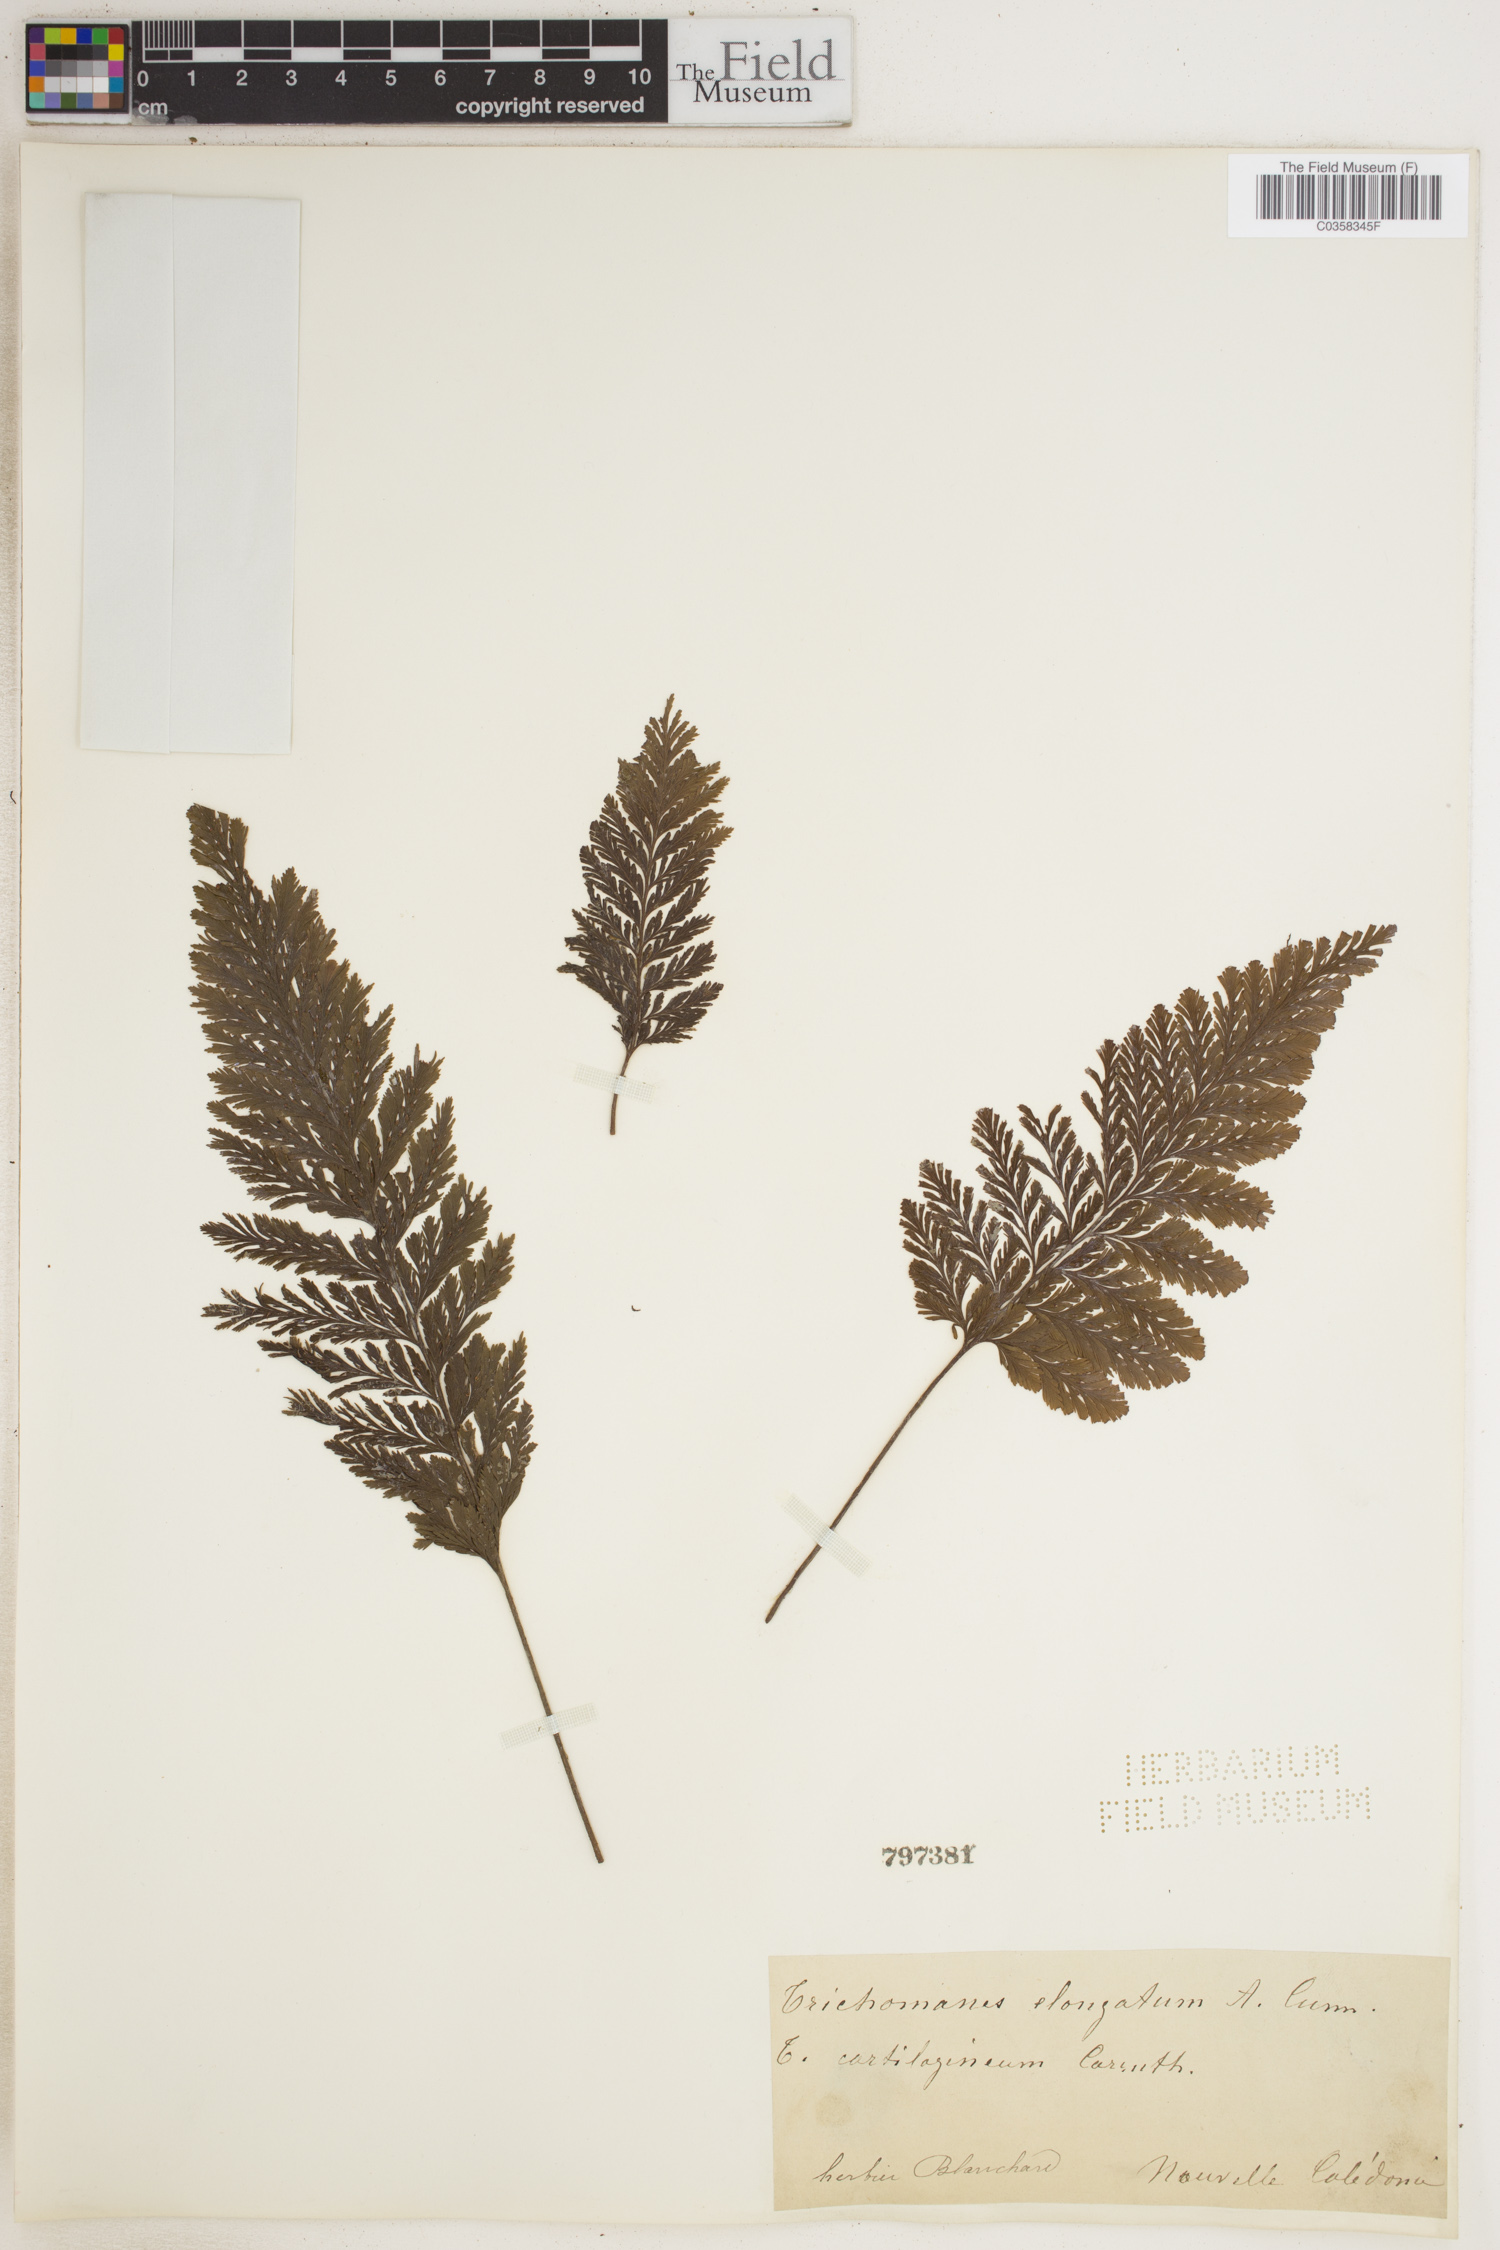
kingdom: Plantae
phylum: Tracheophyta
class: Polypodiopsida
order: Hymenophyllales
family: Hymenophyllaceae
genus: Abrodictyum
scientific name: Abrodictyum elongatum
